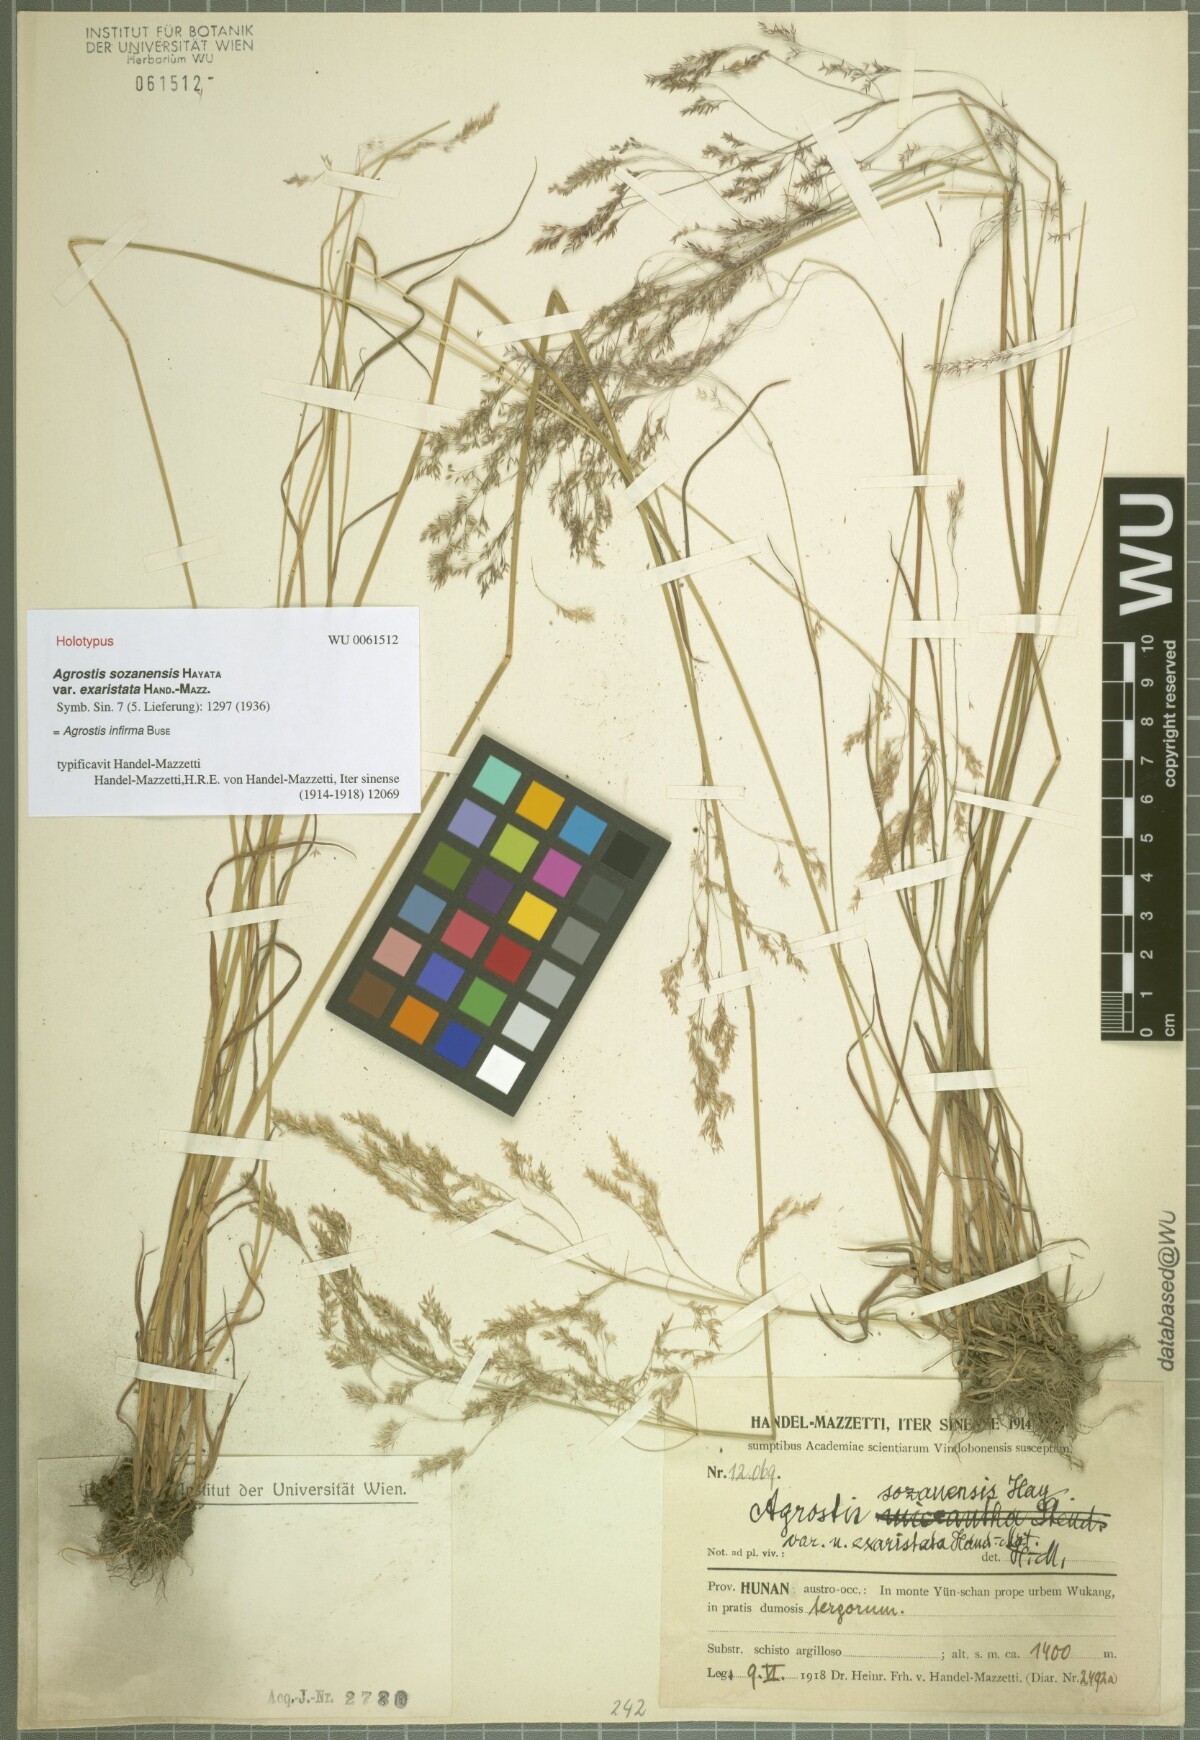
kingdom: Plantae
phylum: Tracheophyta
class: Liliopsida
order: Poales
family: Poaceae
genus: Agrostis
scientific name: Agrostis infirma
